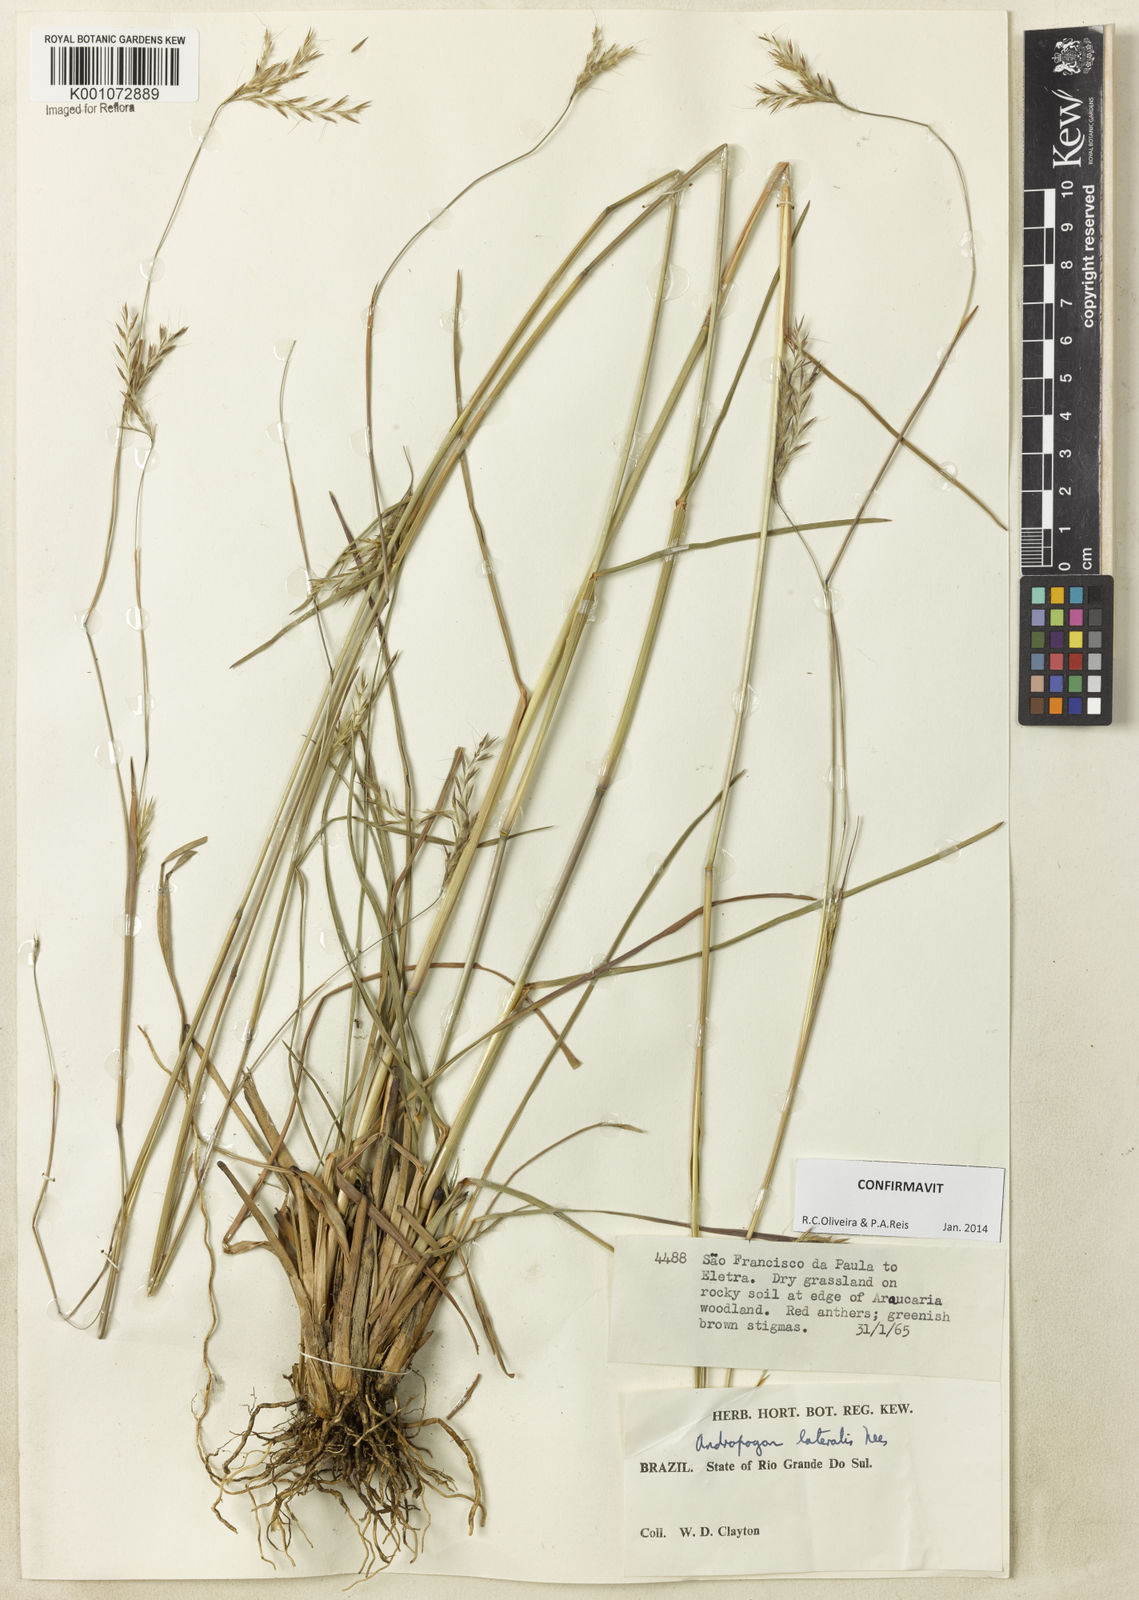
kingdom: Plantae
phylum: Tracheophyta
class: Liliopsida
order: Poales
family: Poaceae
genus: Andropogon
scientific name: Andropogon lateralis
